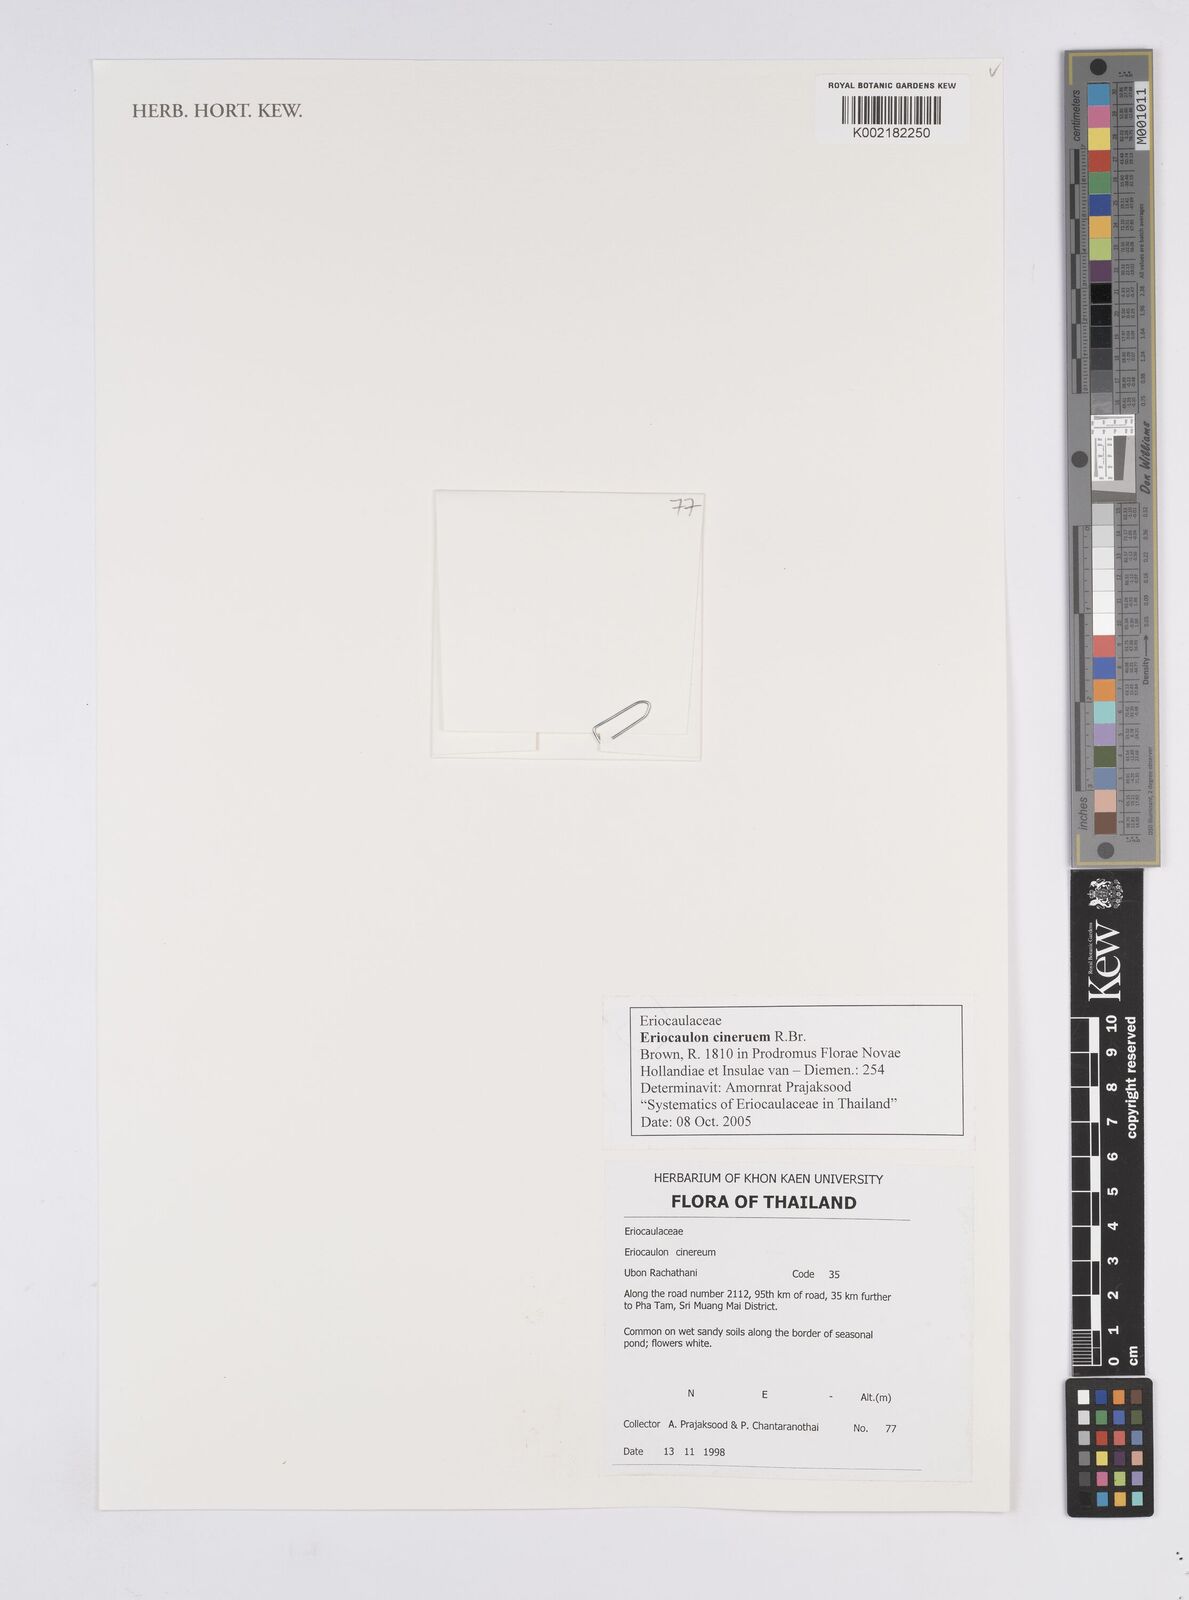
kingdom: Plantae
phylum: Tracheophyta
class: Liliopsida
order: Poales
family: Eriocaulaceae
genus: Eriocaulon
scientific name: Eriocaulon cinereum
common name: Ashy pipewort
